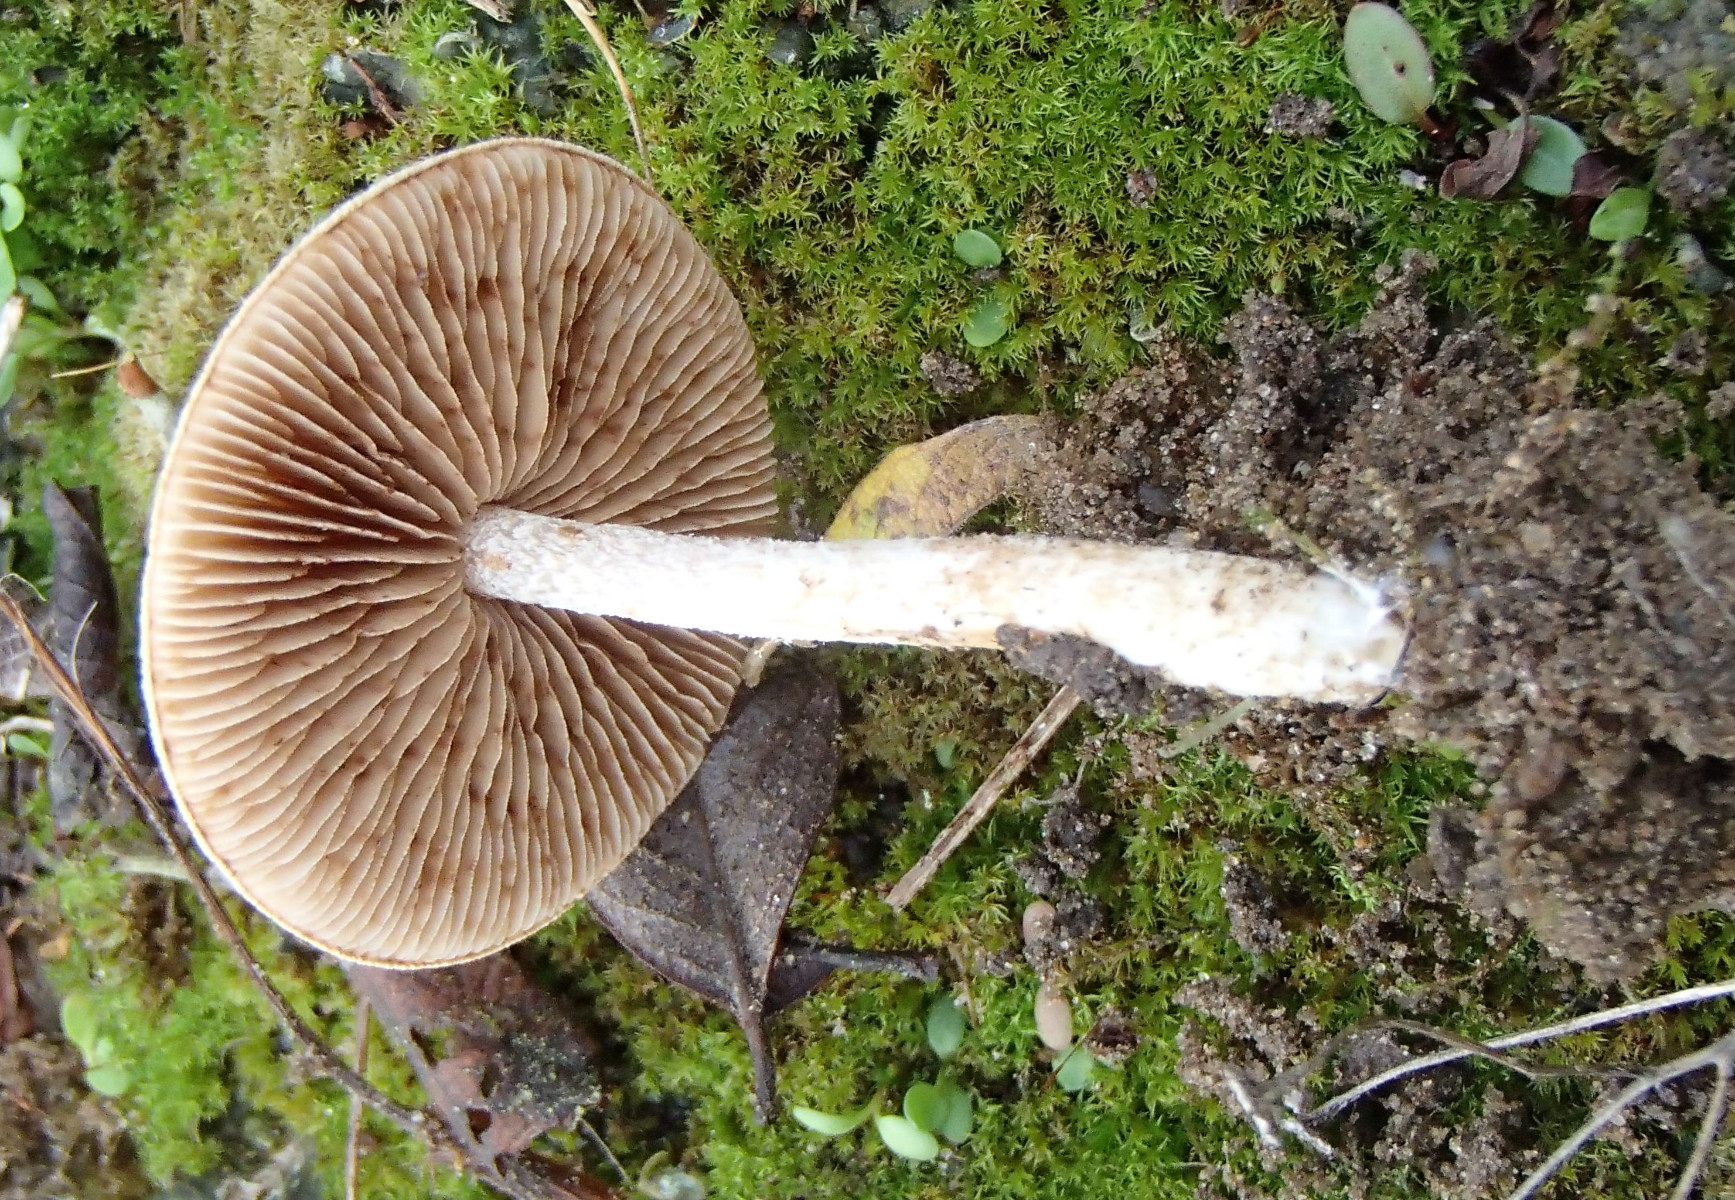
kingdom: Fungi
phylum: Basidiomycota
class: Agaricomycetes
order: Agaricales
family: Hymenogastraceae
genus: Hebeloma
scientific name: Hebeloma
